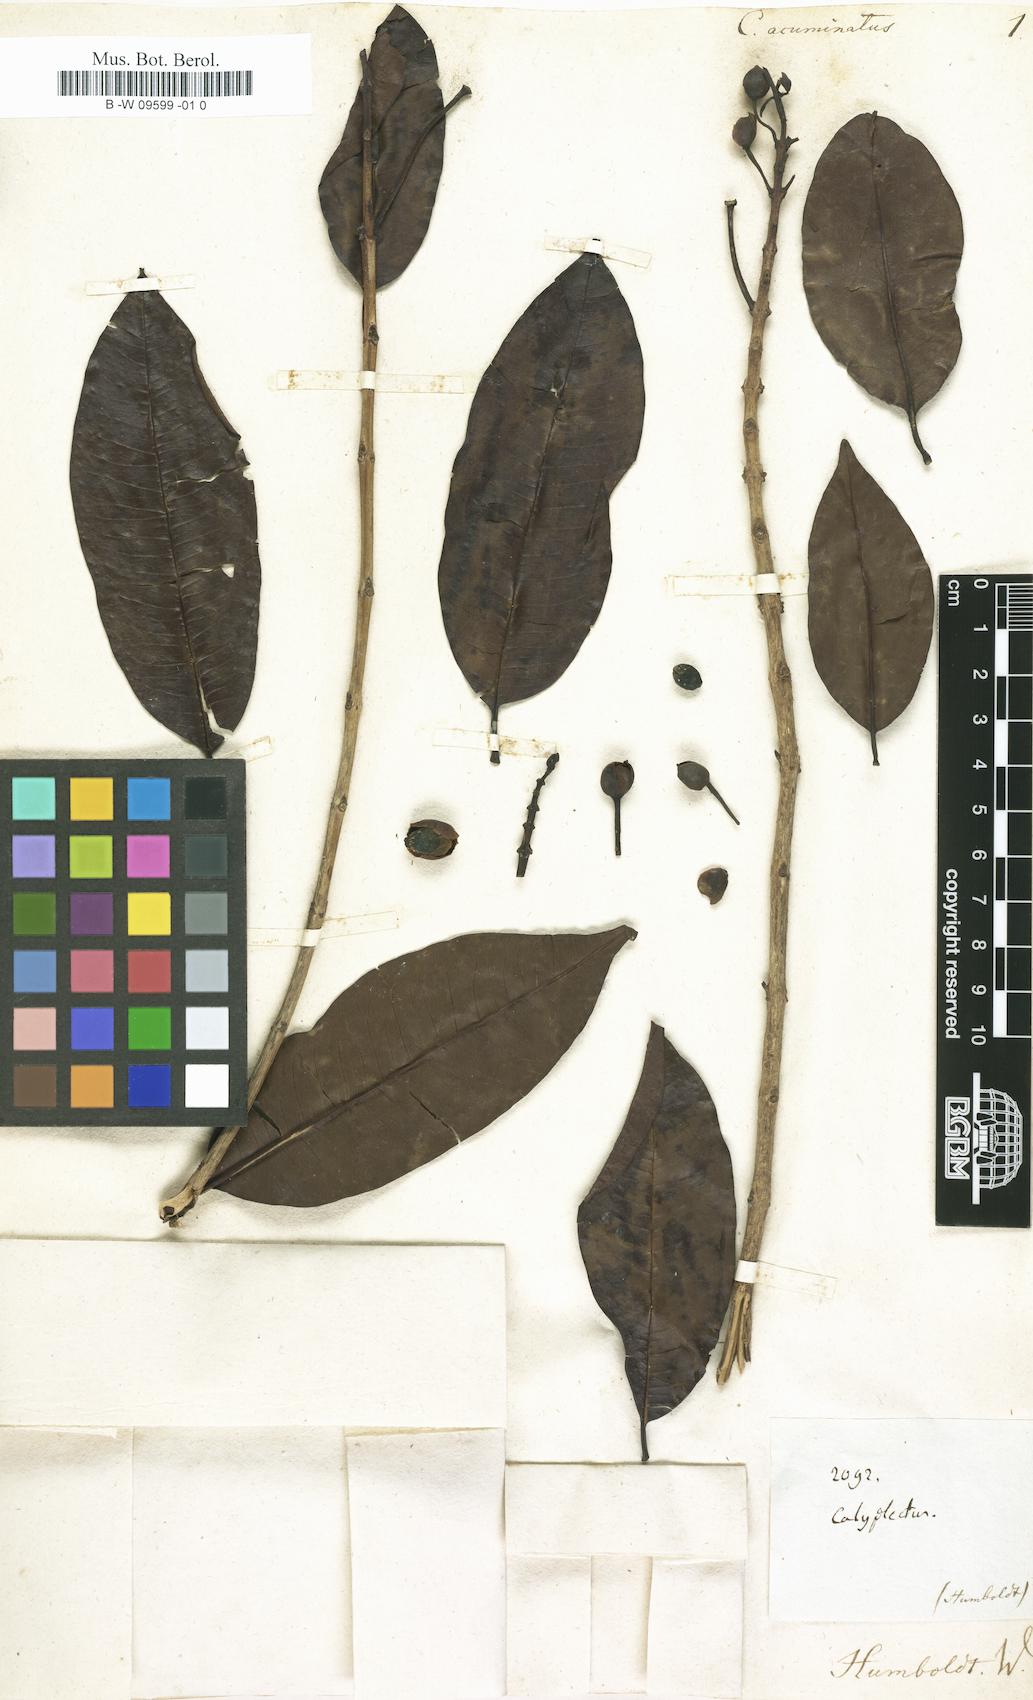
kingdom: Plantae
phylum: Tracheophyta
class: Magnoliopsida
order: Myrtales
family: Lythraceae
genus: Lafoensia
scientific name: Lafoensia acuminata
